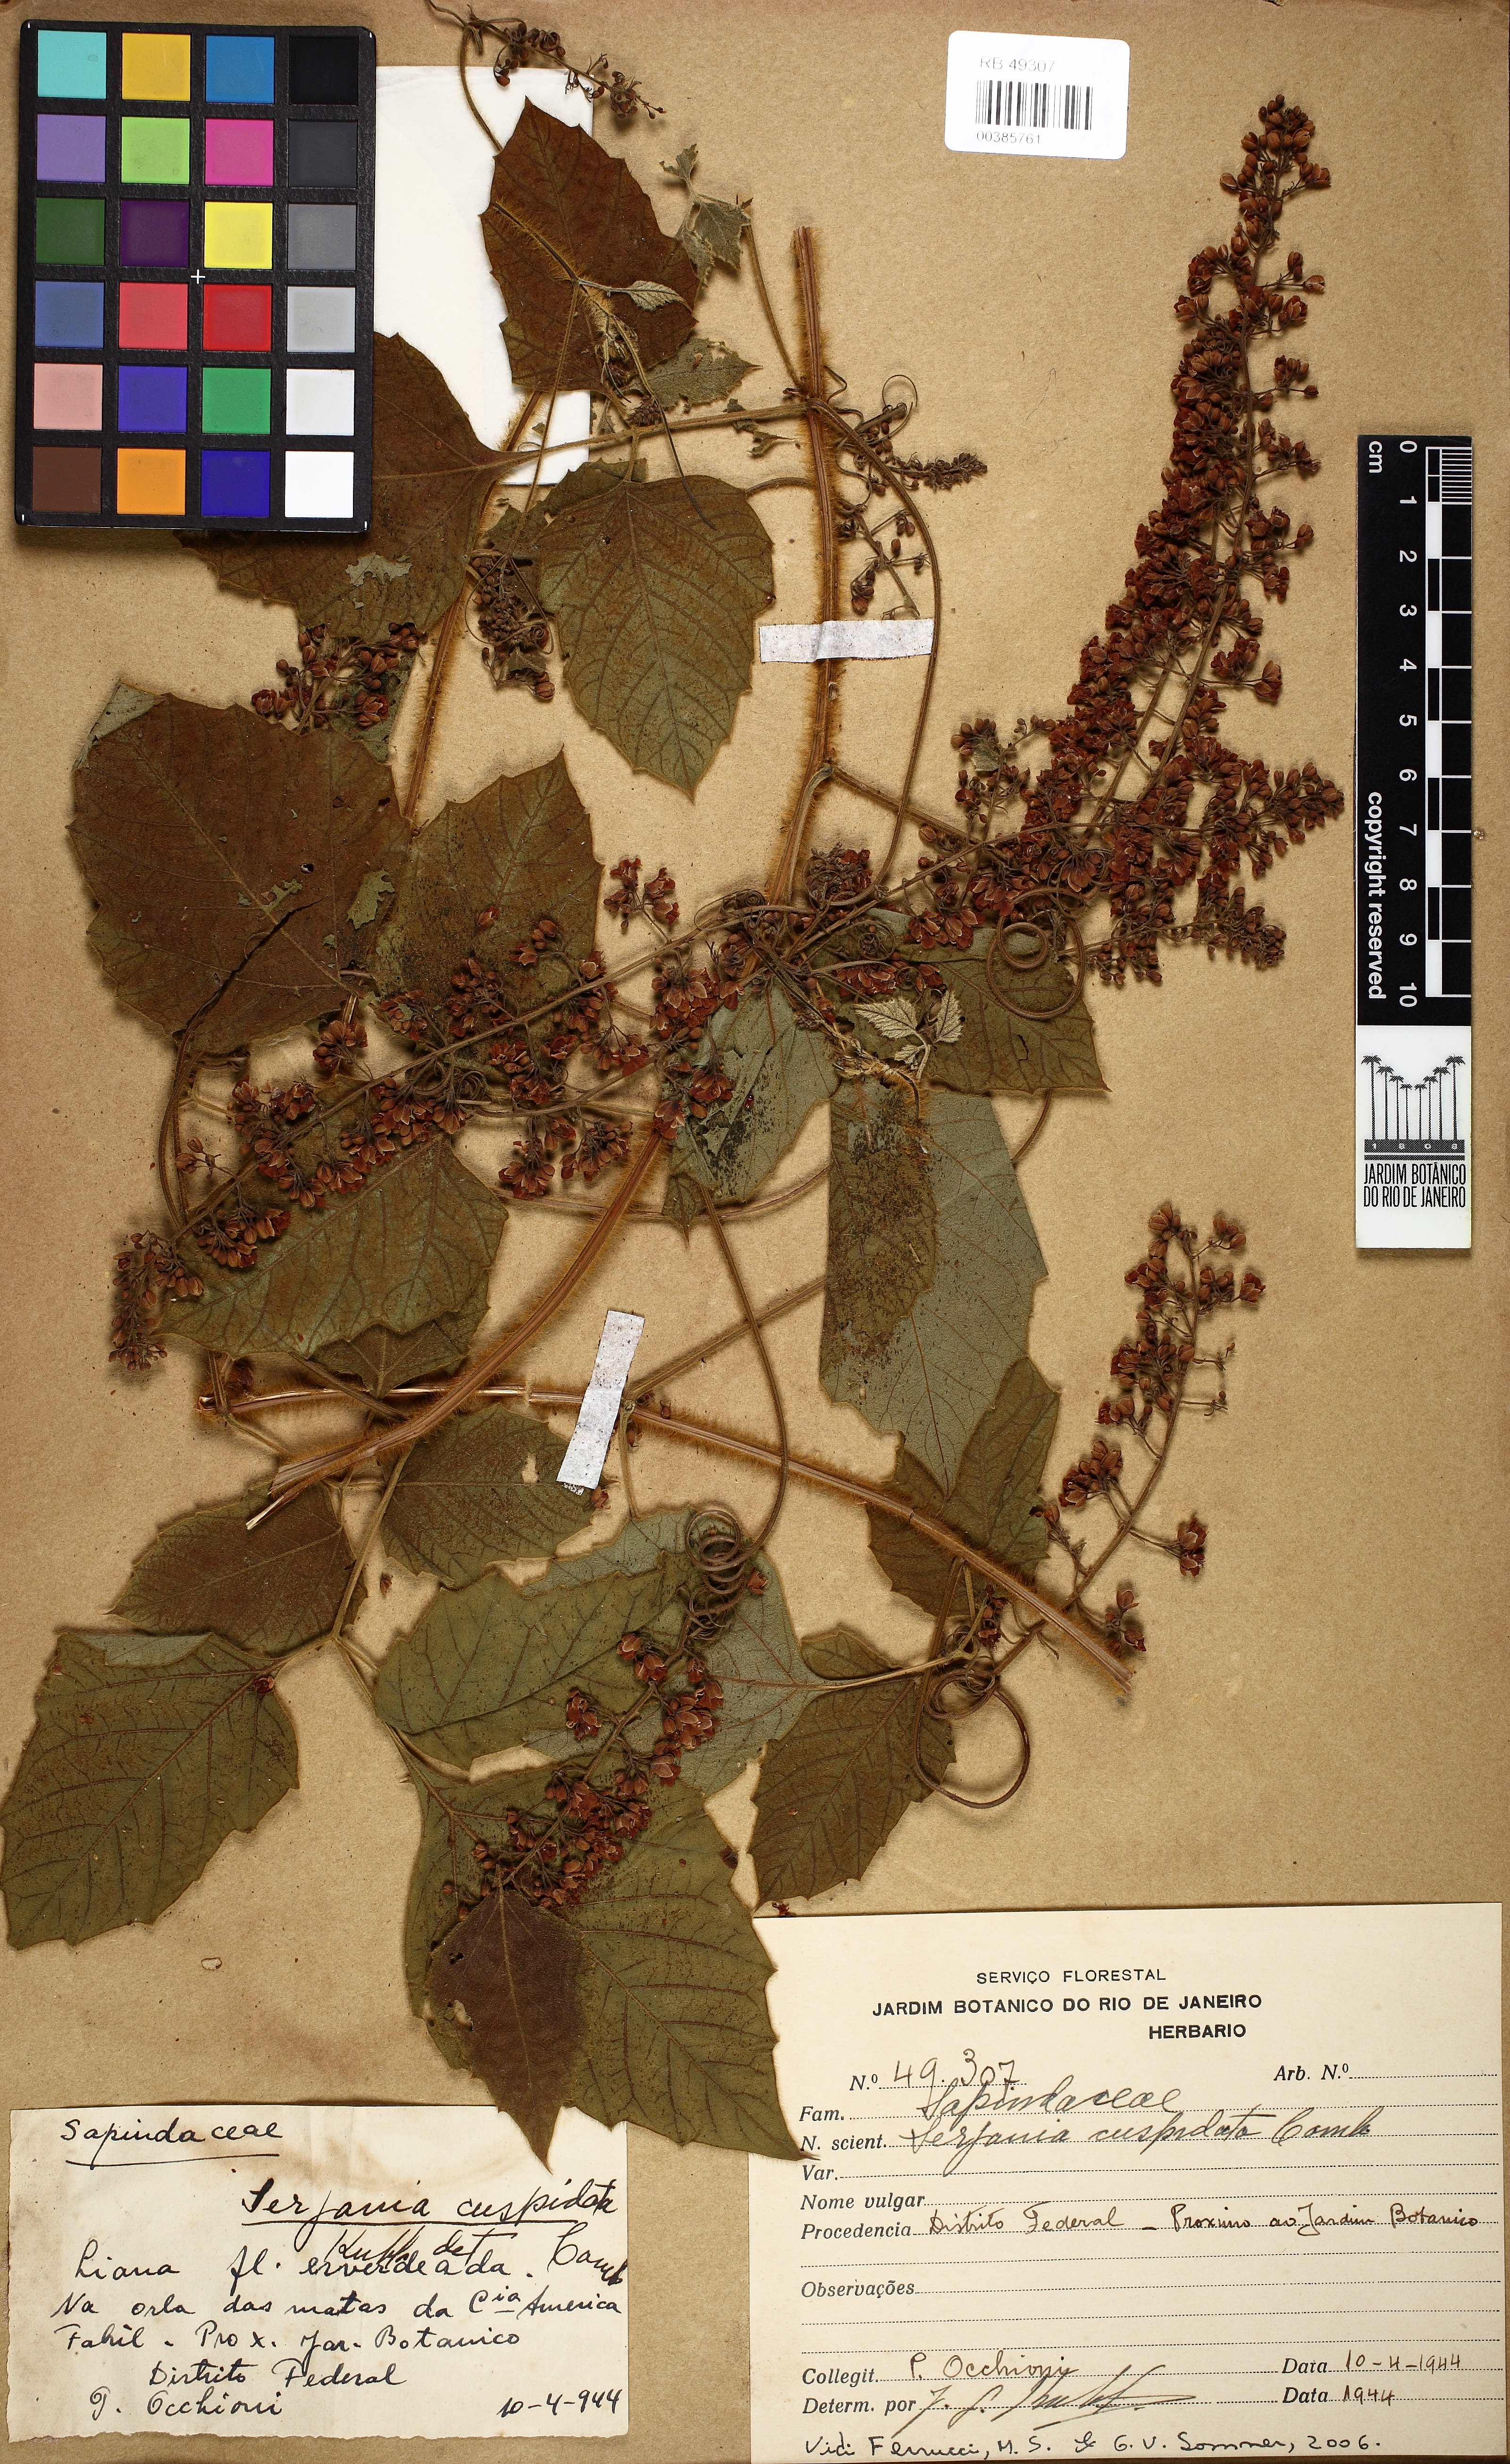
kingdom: Plantae
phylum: Tracheophyta
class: Magnoliopsida
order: Sapindales
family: Sapindaceae
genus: Serjania
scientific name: Serjania ferruginea
